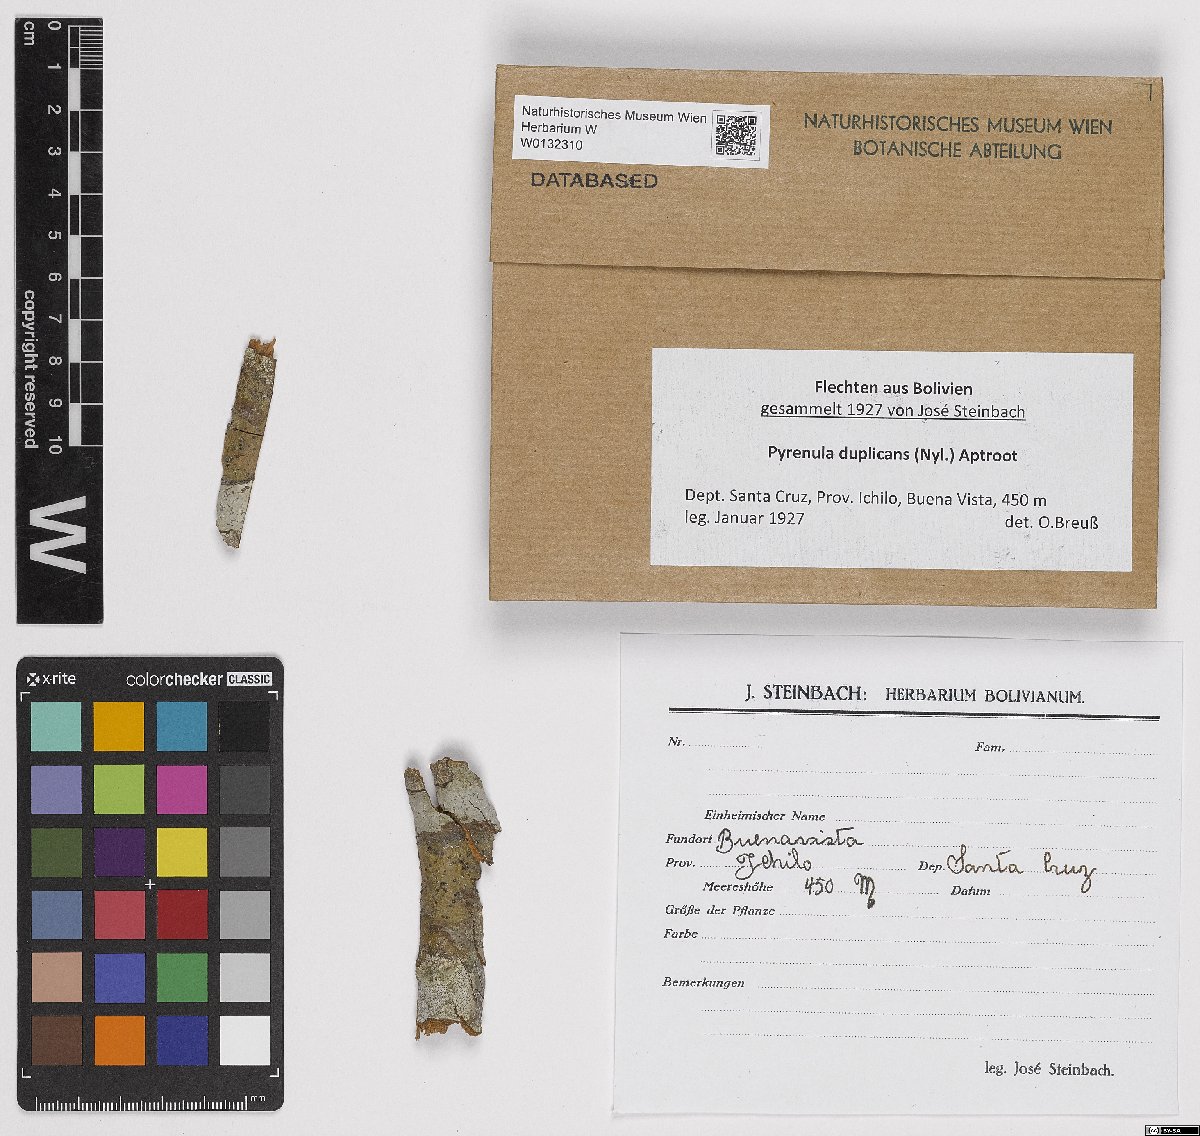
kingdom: Fungi
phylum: Ascomycota
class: Eurotiomycetes
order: Pyrenulales
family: Pyrenulaceae
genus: Pyrenula
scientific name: Pyrenula duplicans
